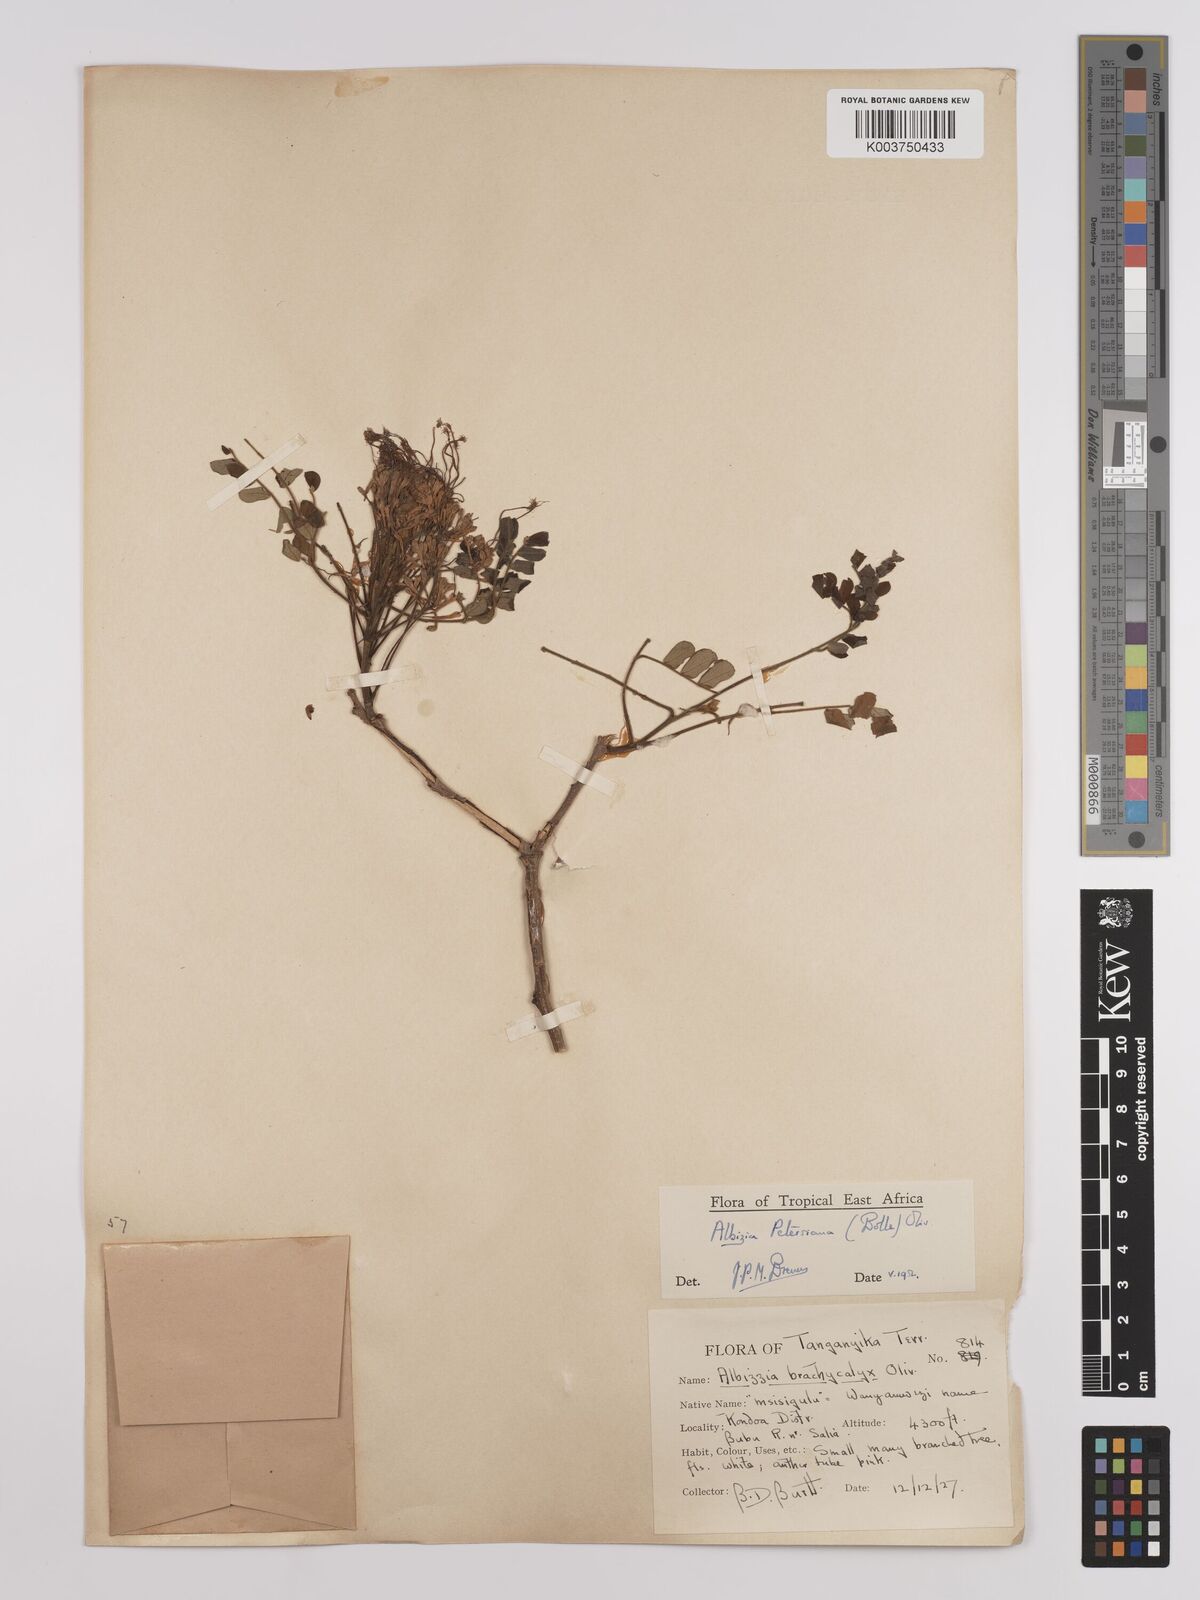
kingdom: Plantae
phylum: Tracheophyta
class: Magnoliopsida
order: Fabales
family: Fabaceae
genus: Albizia
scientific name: Albizia petersiana
